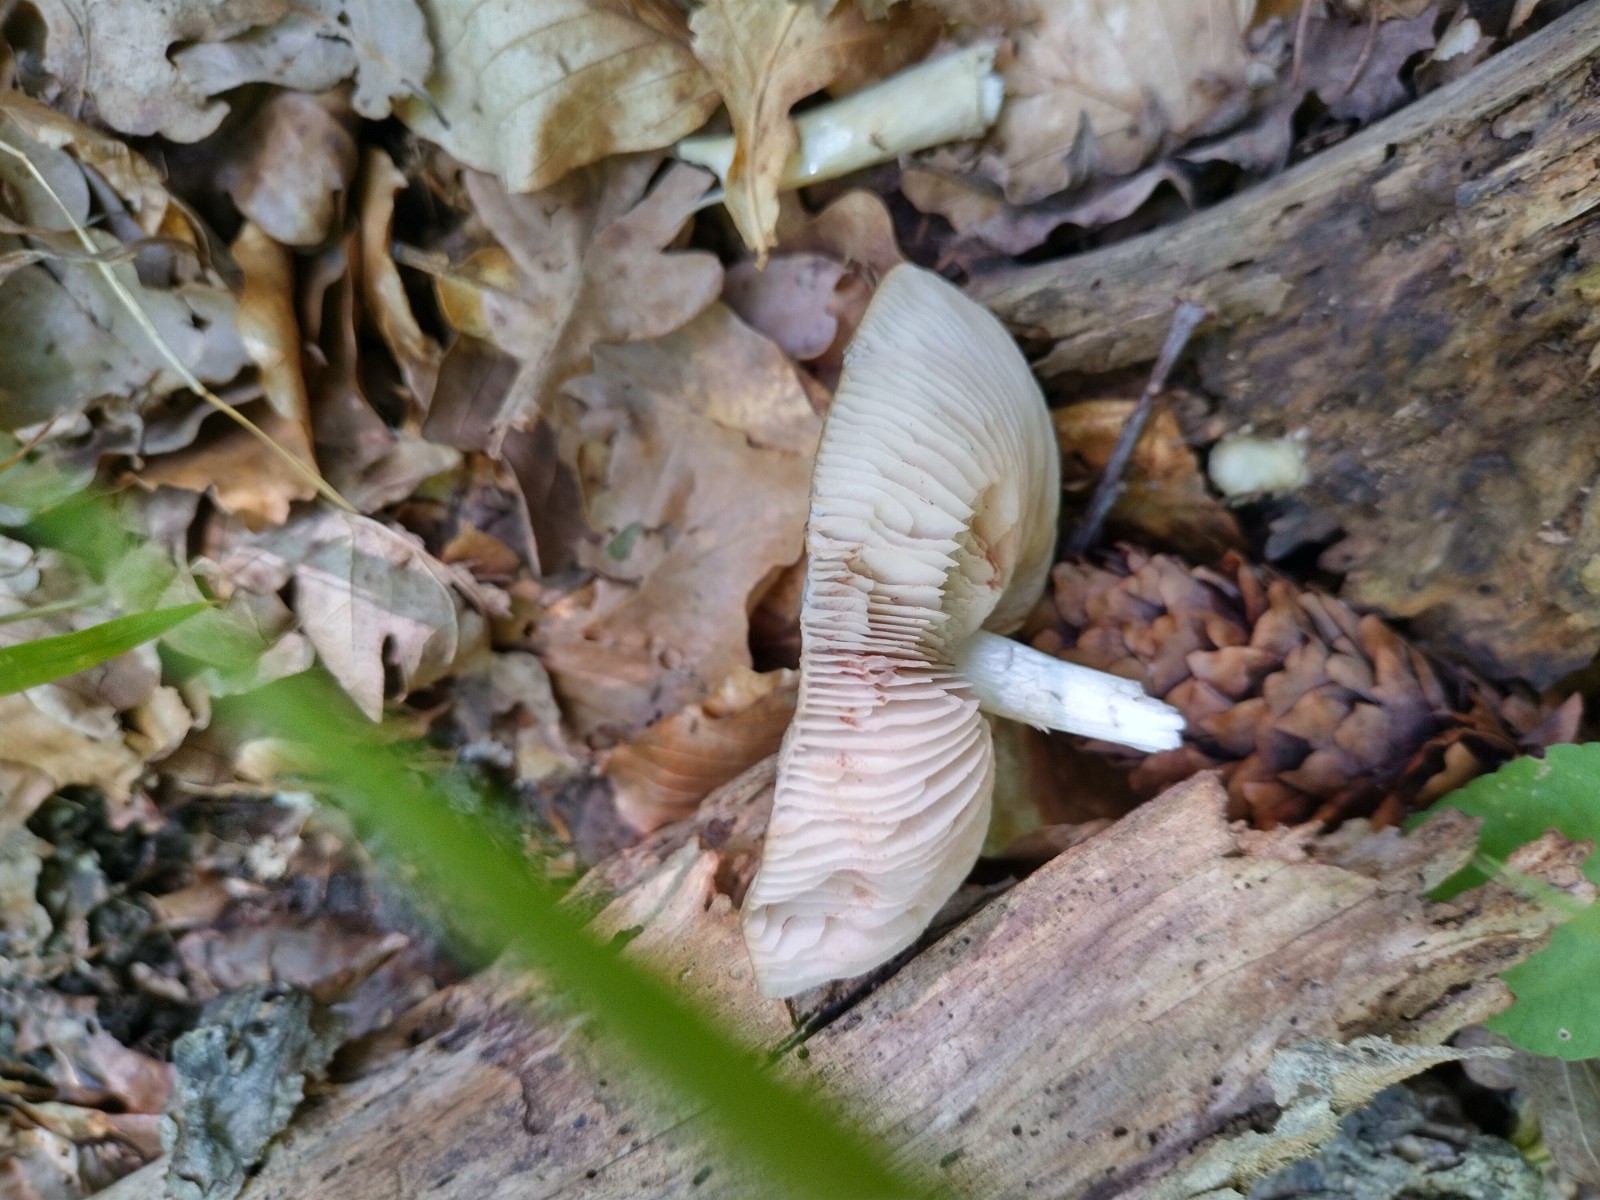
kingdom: Fungi
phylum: Basidiomycota
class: Agaricomycetes
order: Agaricales
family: Pluteaceae
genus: Pluteus
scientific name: Pluteus salicinus
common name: stiv skærmhat
